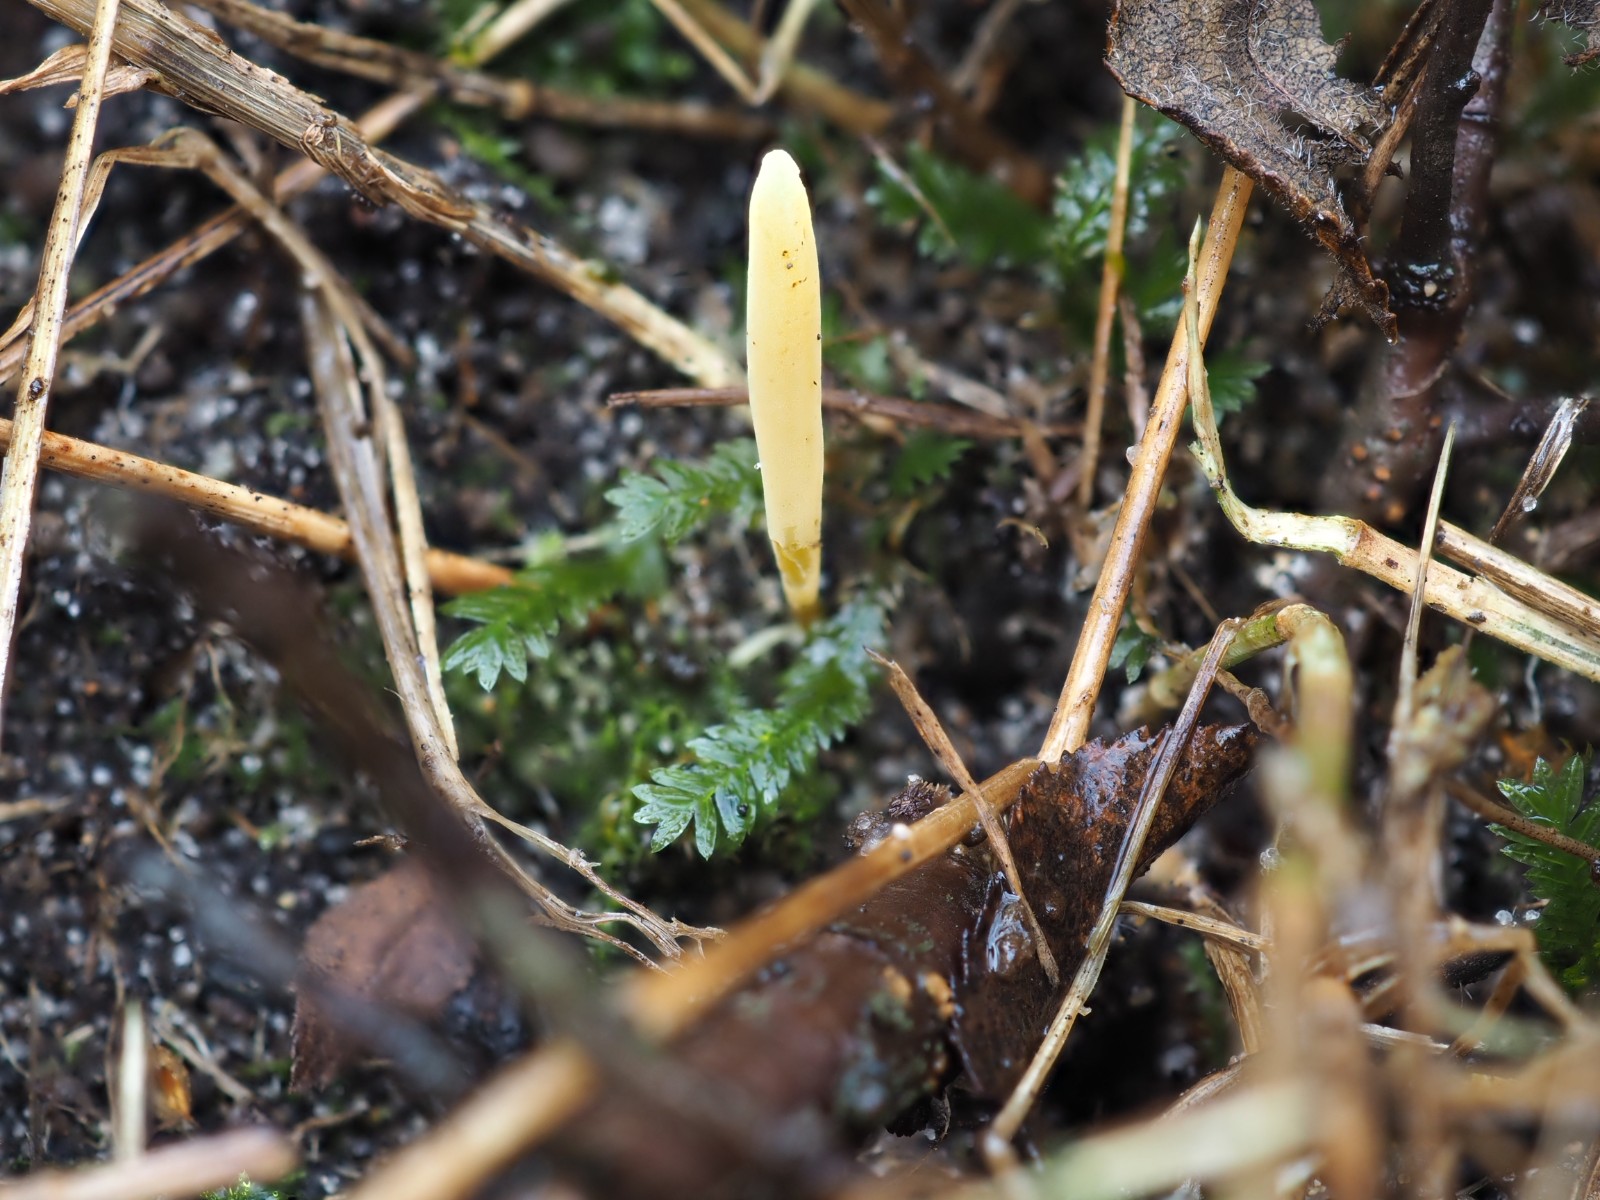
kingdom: Fungi
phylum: Basidiomycota
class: Agaricomycetes
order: Agaricales
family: Clavariaceae
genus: Clavaria
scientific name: Clavaria flavostellifera
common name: stjernegul køllesvamp
